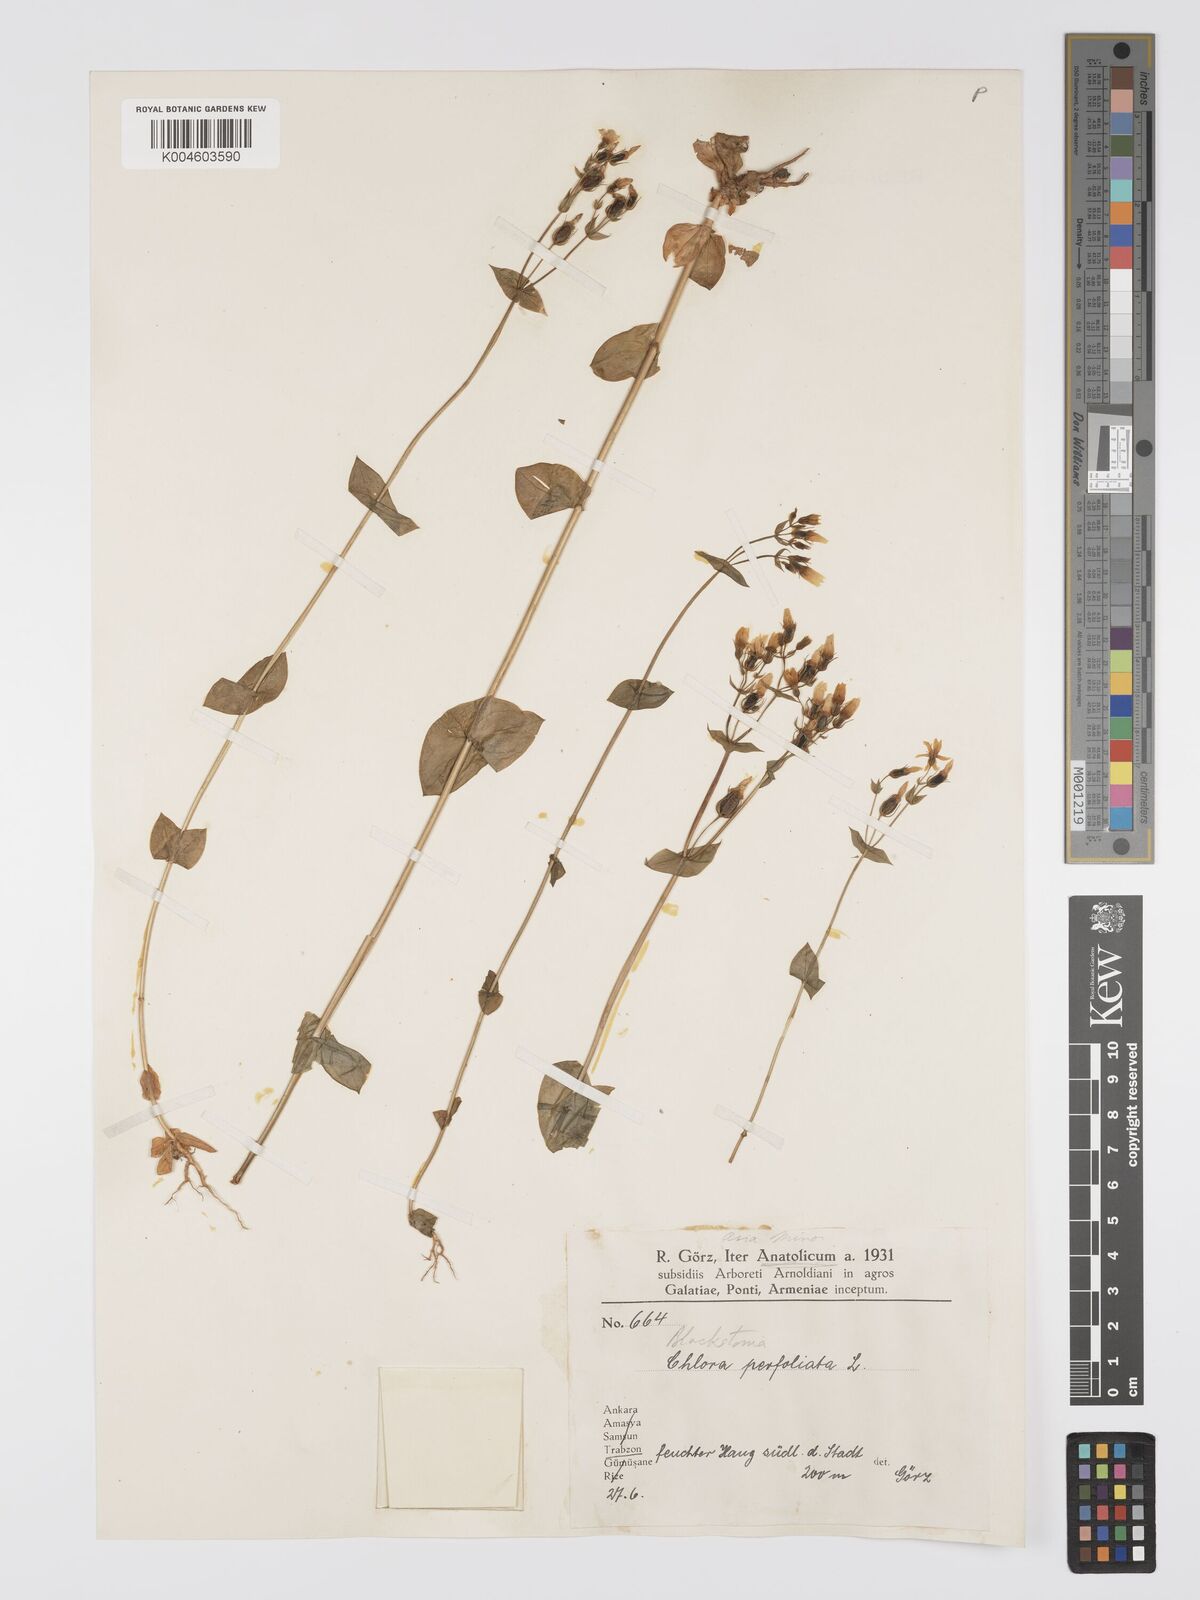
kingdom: Plantae
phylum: Tracheophyta
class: Magnoliopsida
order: Gentianales
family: Gentianaceae
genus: Blackstonia
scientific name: Blackstonia perfoliata
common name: Yellow-wort
